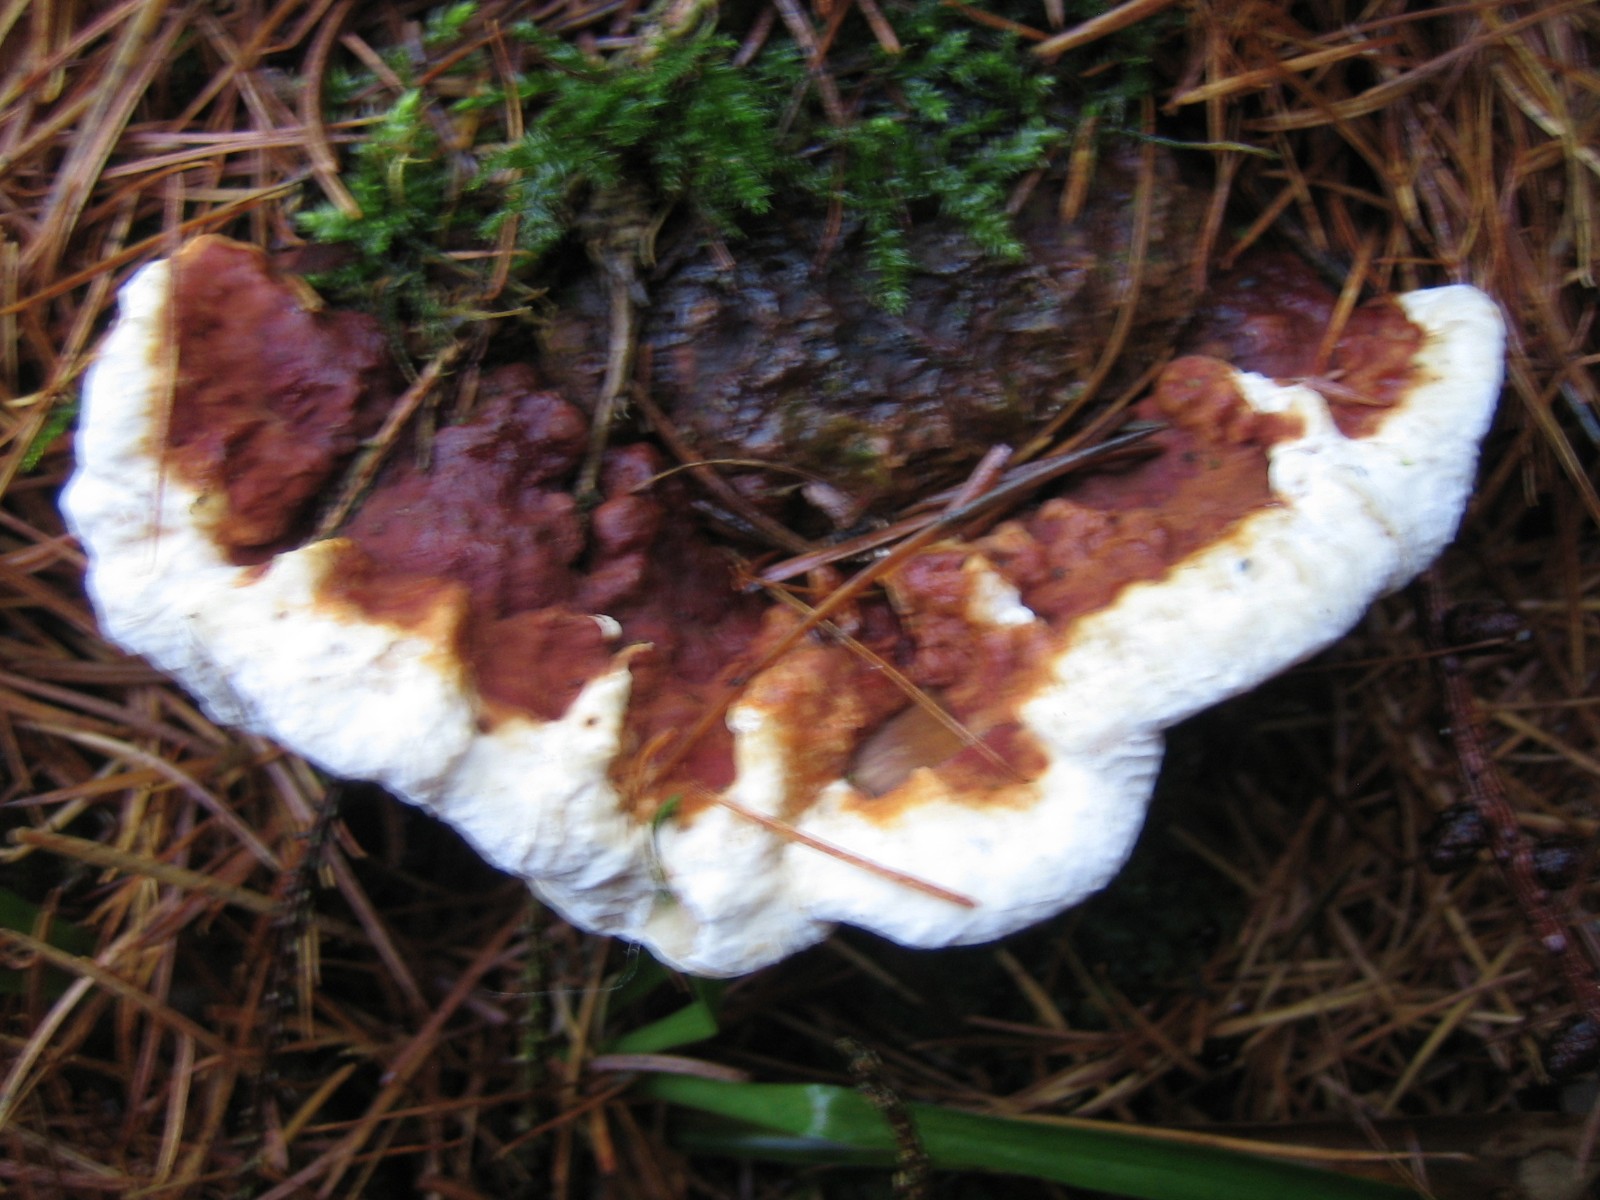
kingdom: Fungi
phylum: Basidiomycota
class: Agaricomycetes
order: Russulales
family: Bondarzewiaceae
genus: Heterobasidion
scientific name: Heterobasidion annosum
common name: almindelig rodfordærver
